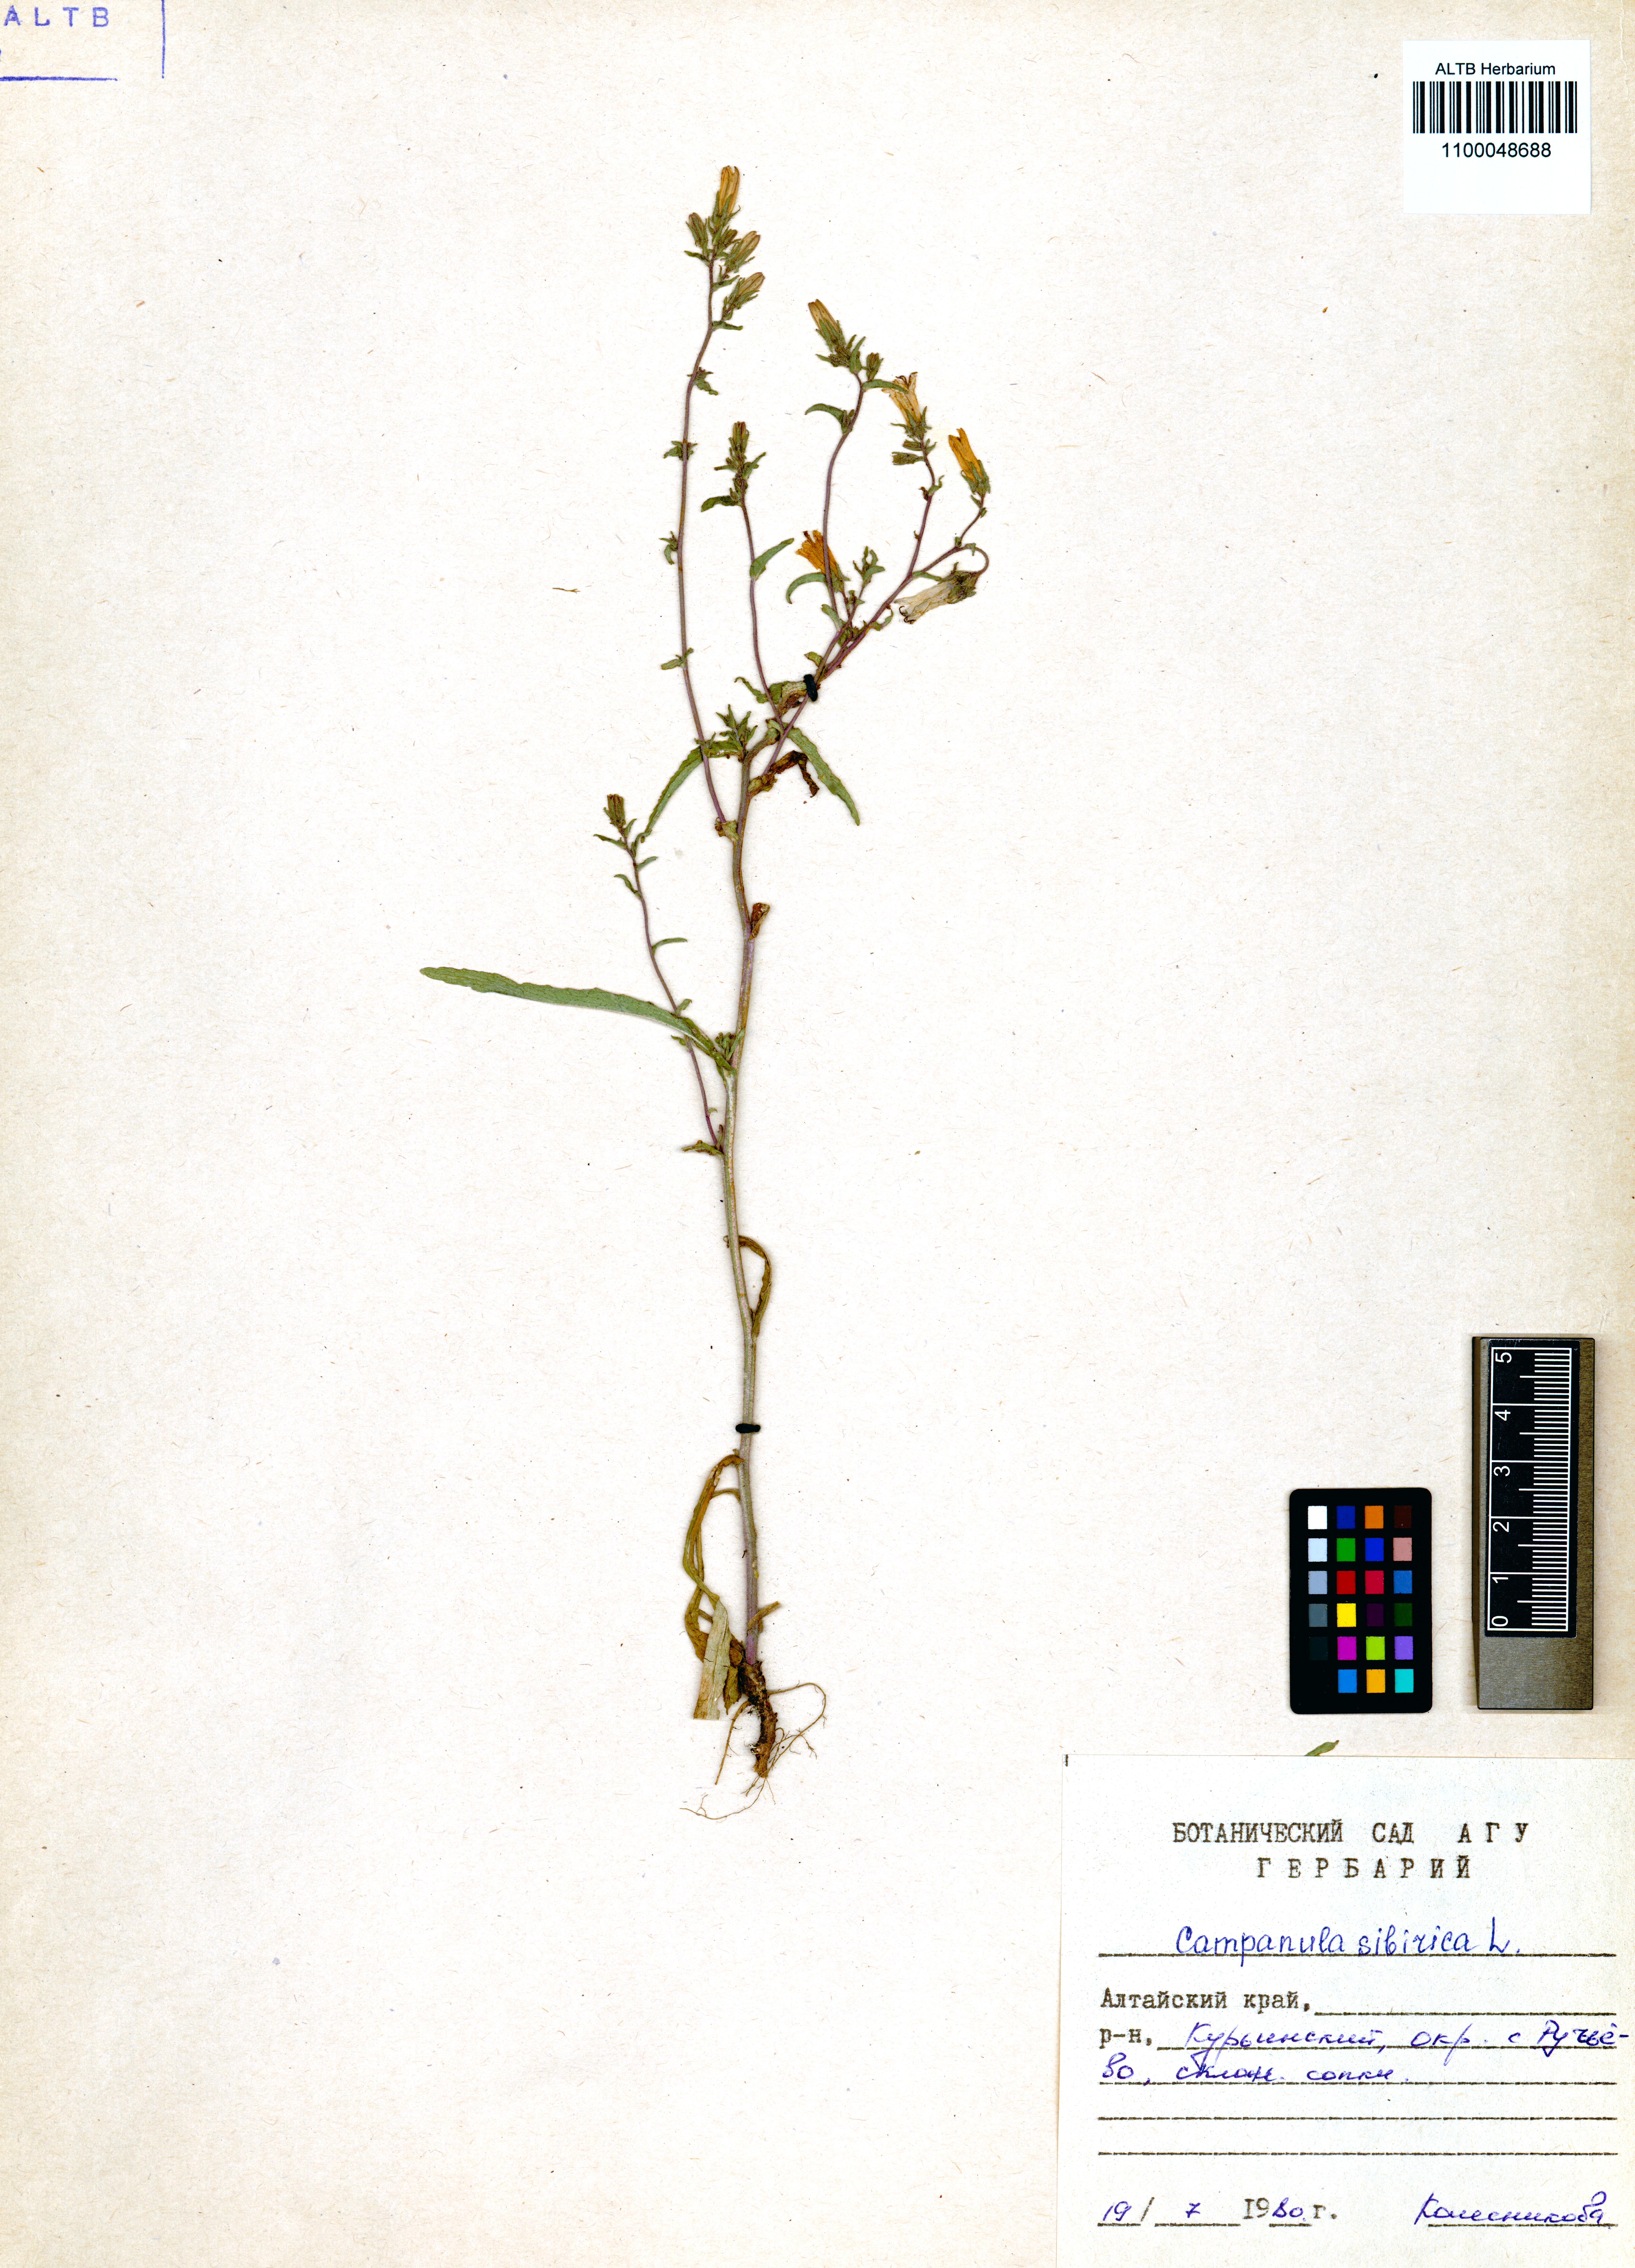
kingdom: Plantae
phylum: Tracheophyta
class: Magnoliopsida
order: Asterales
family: Campanulaceae
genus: Campanula
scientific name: Campanula sibirica
